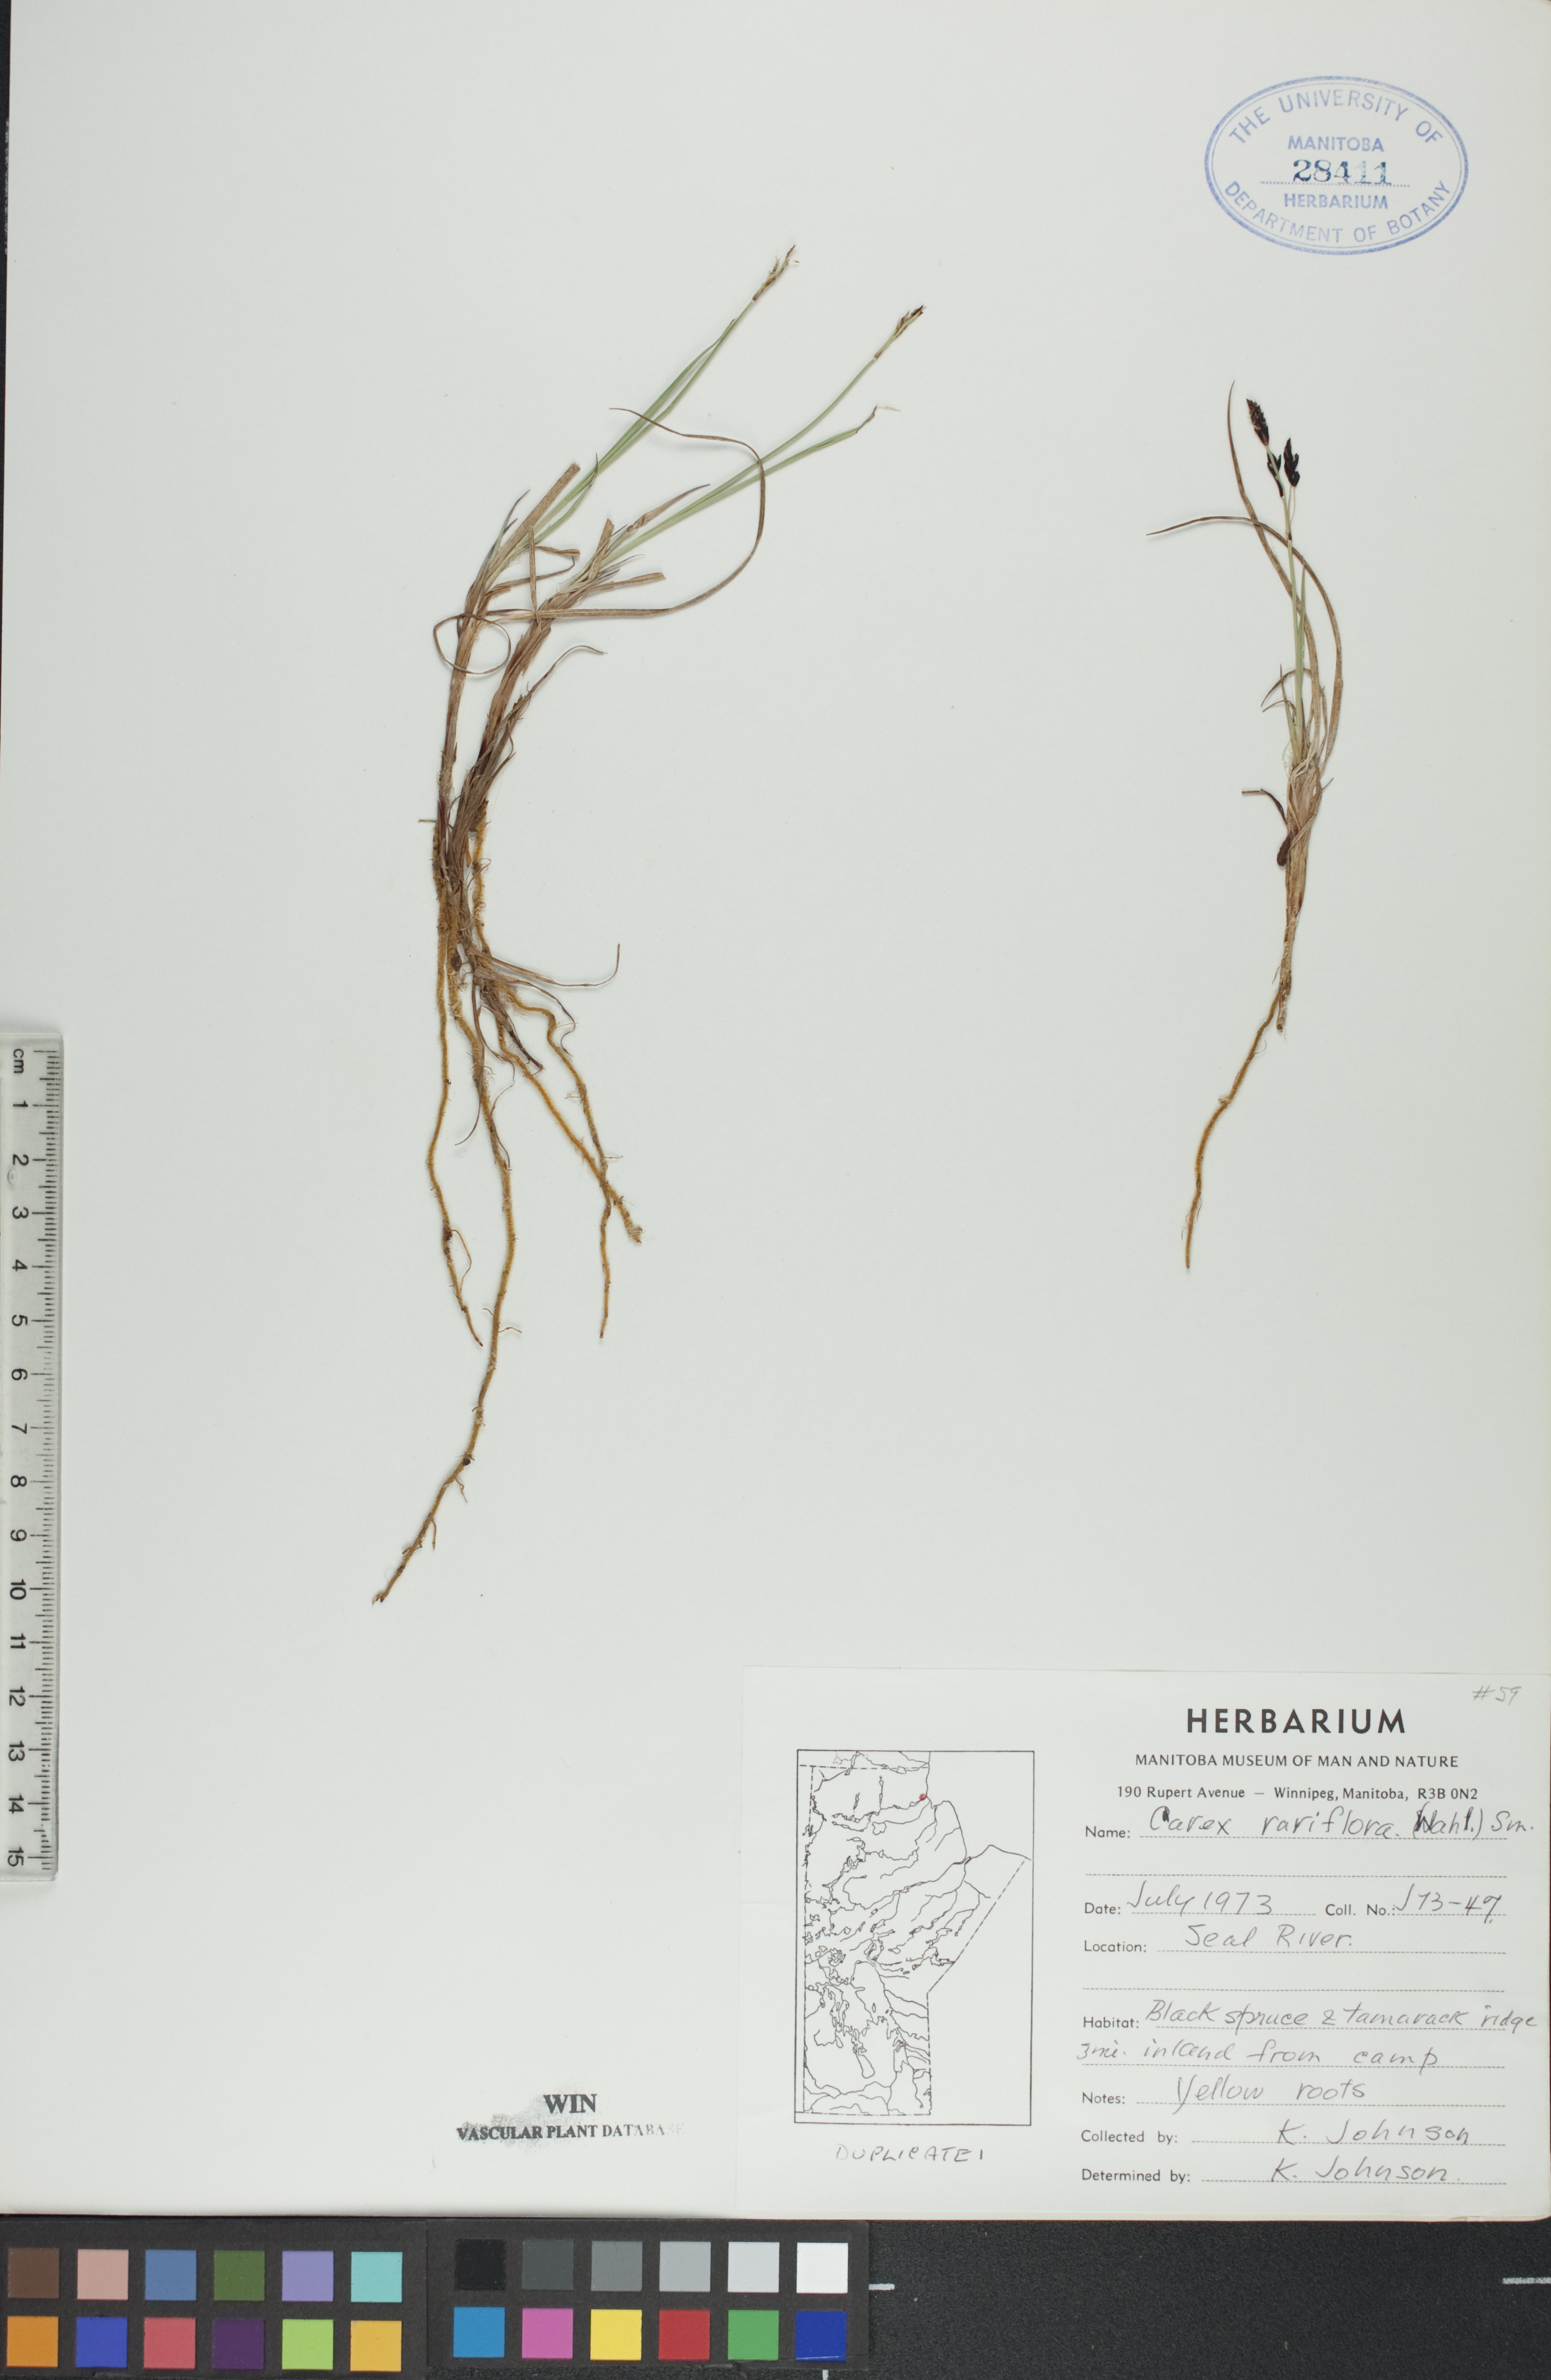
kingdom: Plantae
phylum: Tracheophyta
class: Liliopsida
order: Poales
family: Cyperaceae
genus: Carex
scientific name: Carex rariflora
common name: Loose-flowered alpine sedge
